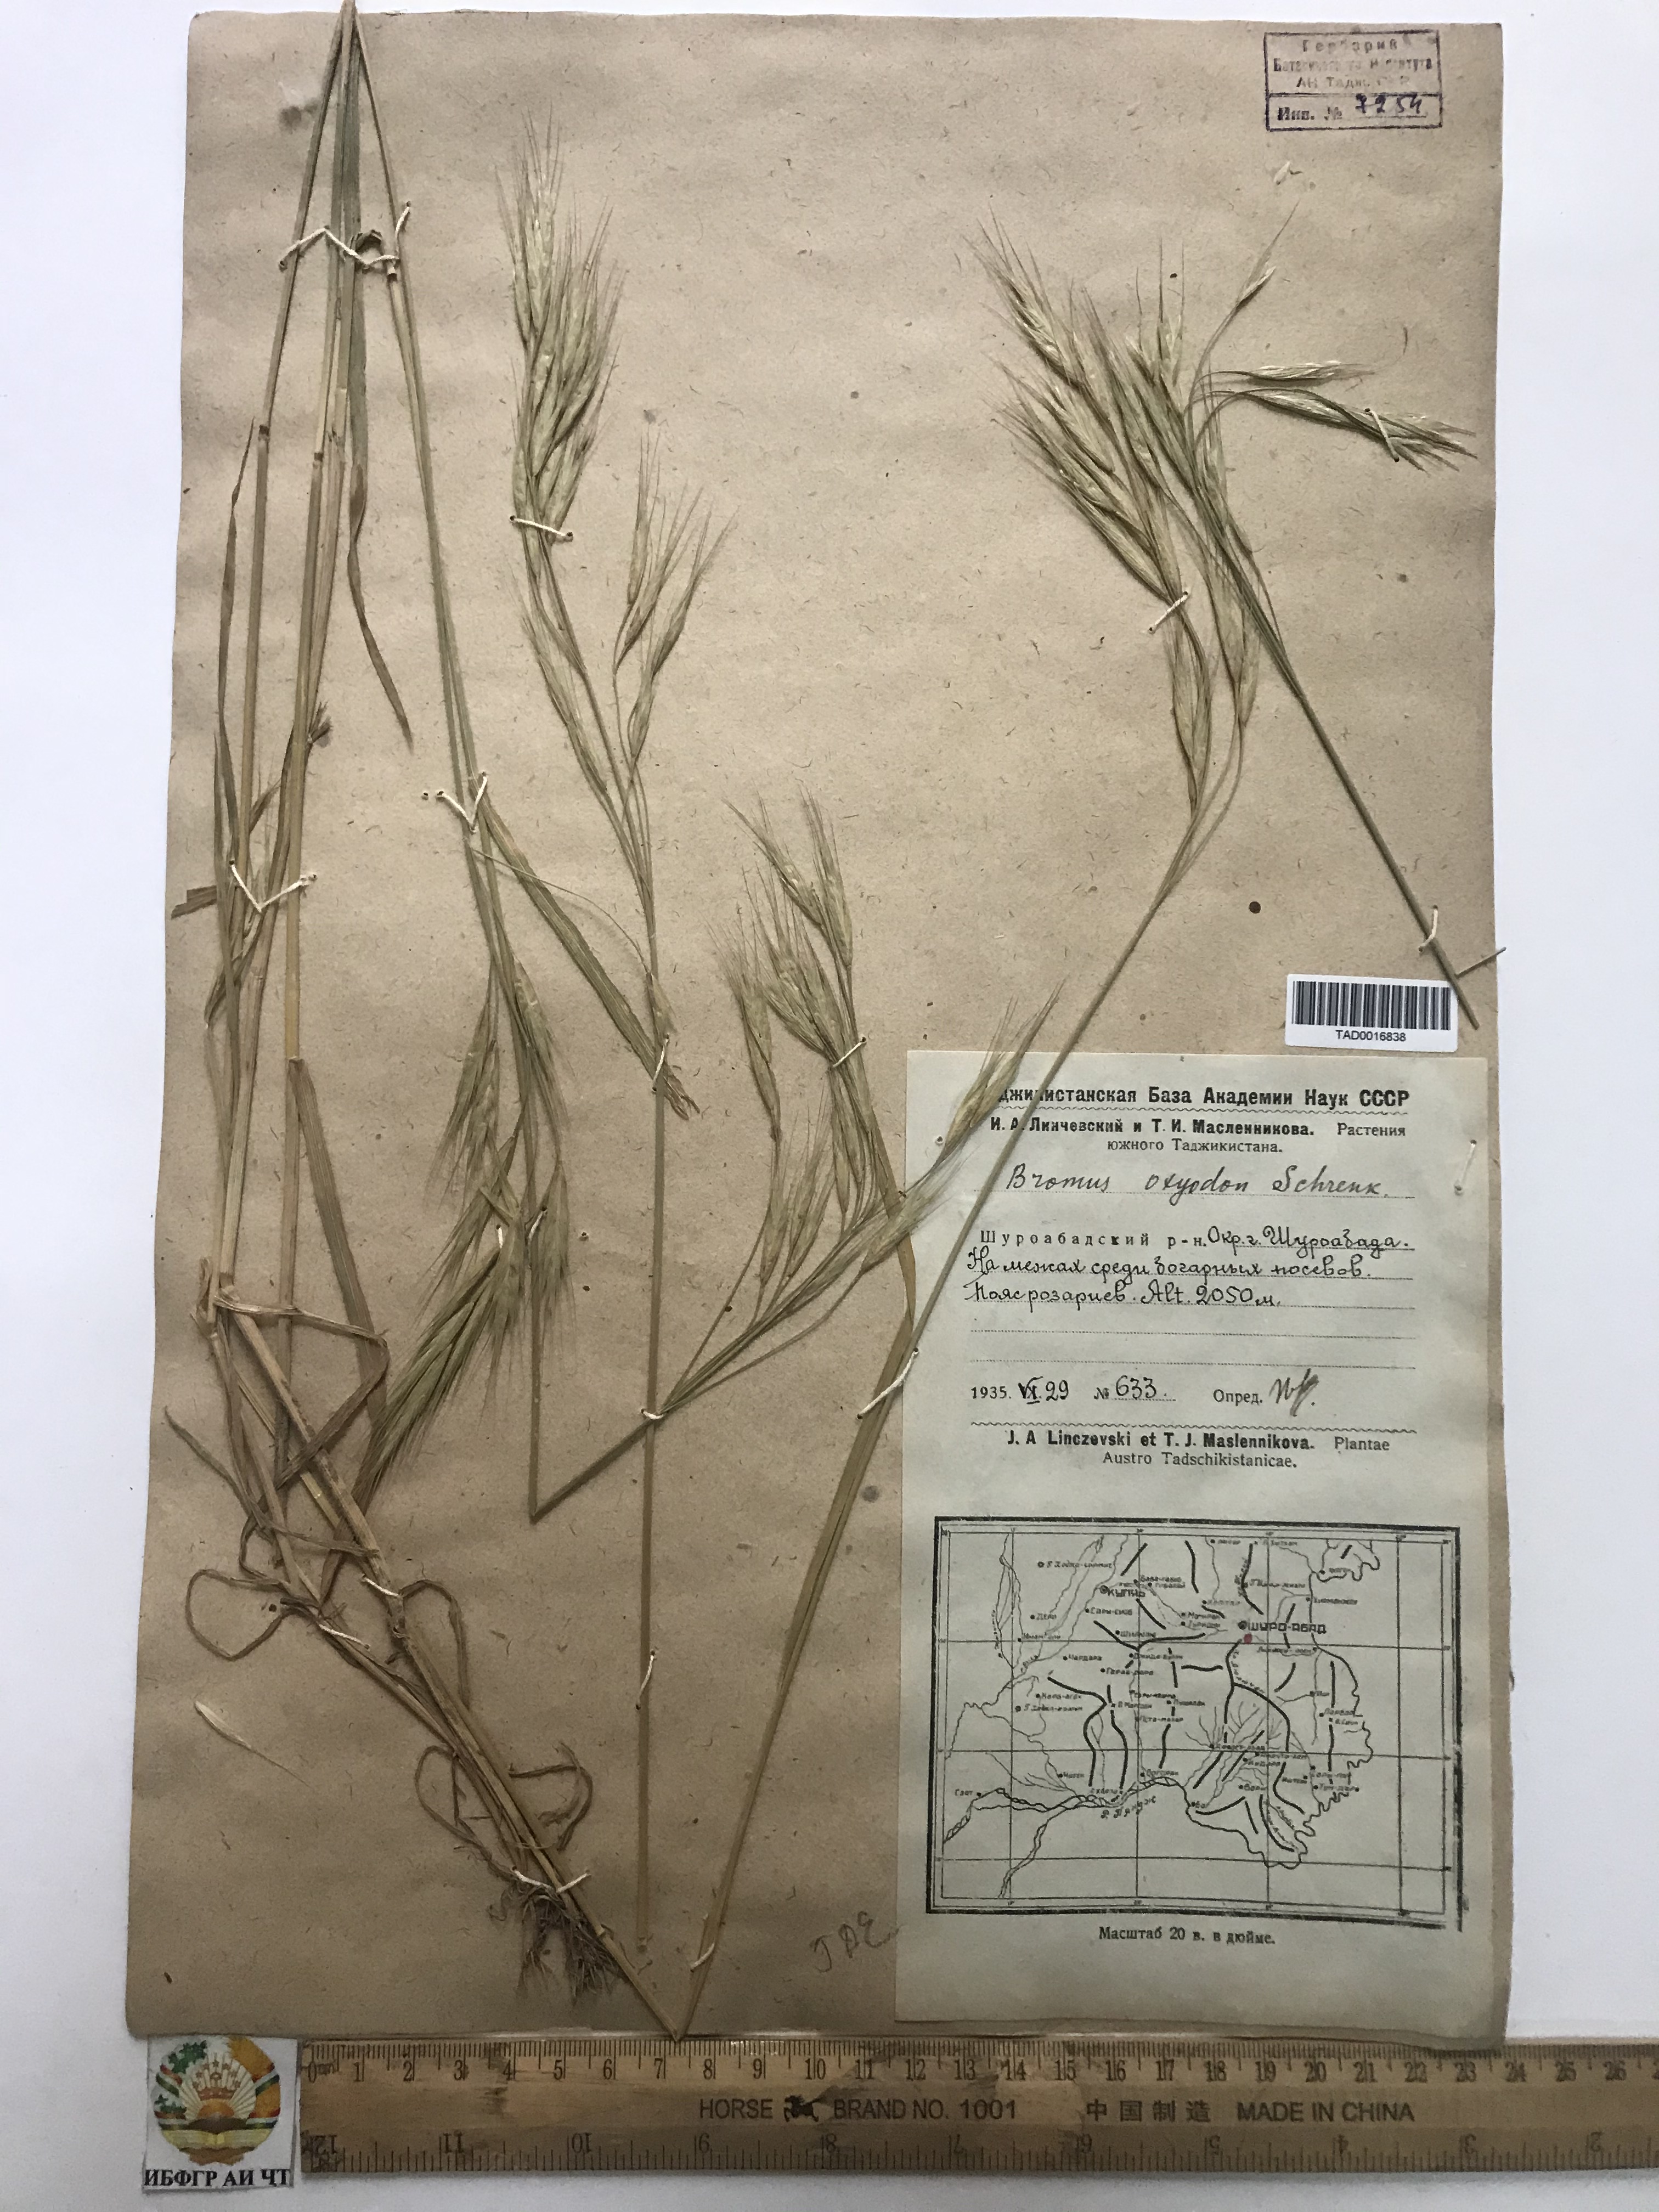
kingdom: Plantae
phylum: Tracheophyta
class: Liliopsida
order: Poales
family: Poaceae
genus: Bromus
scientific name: Bromus oxyodon
